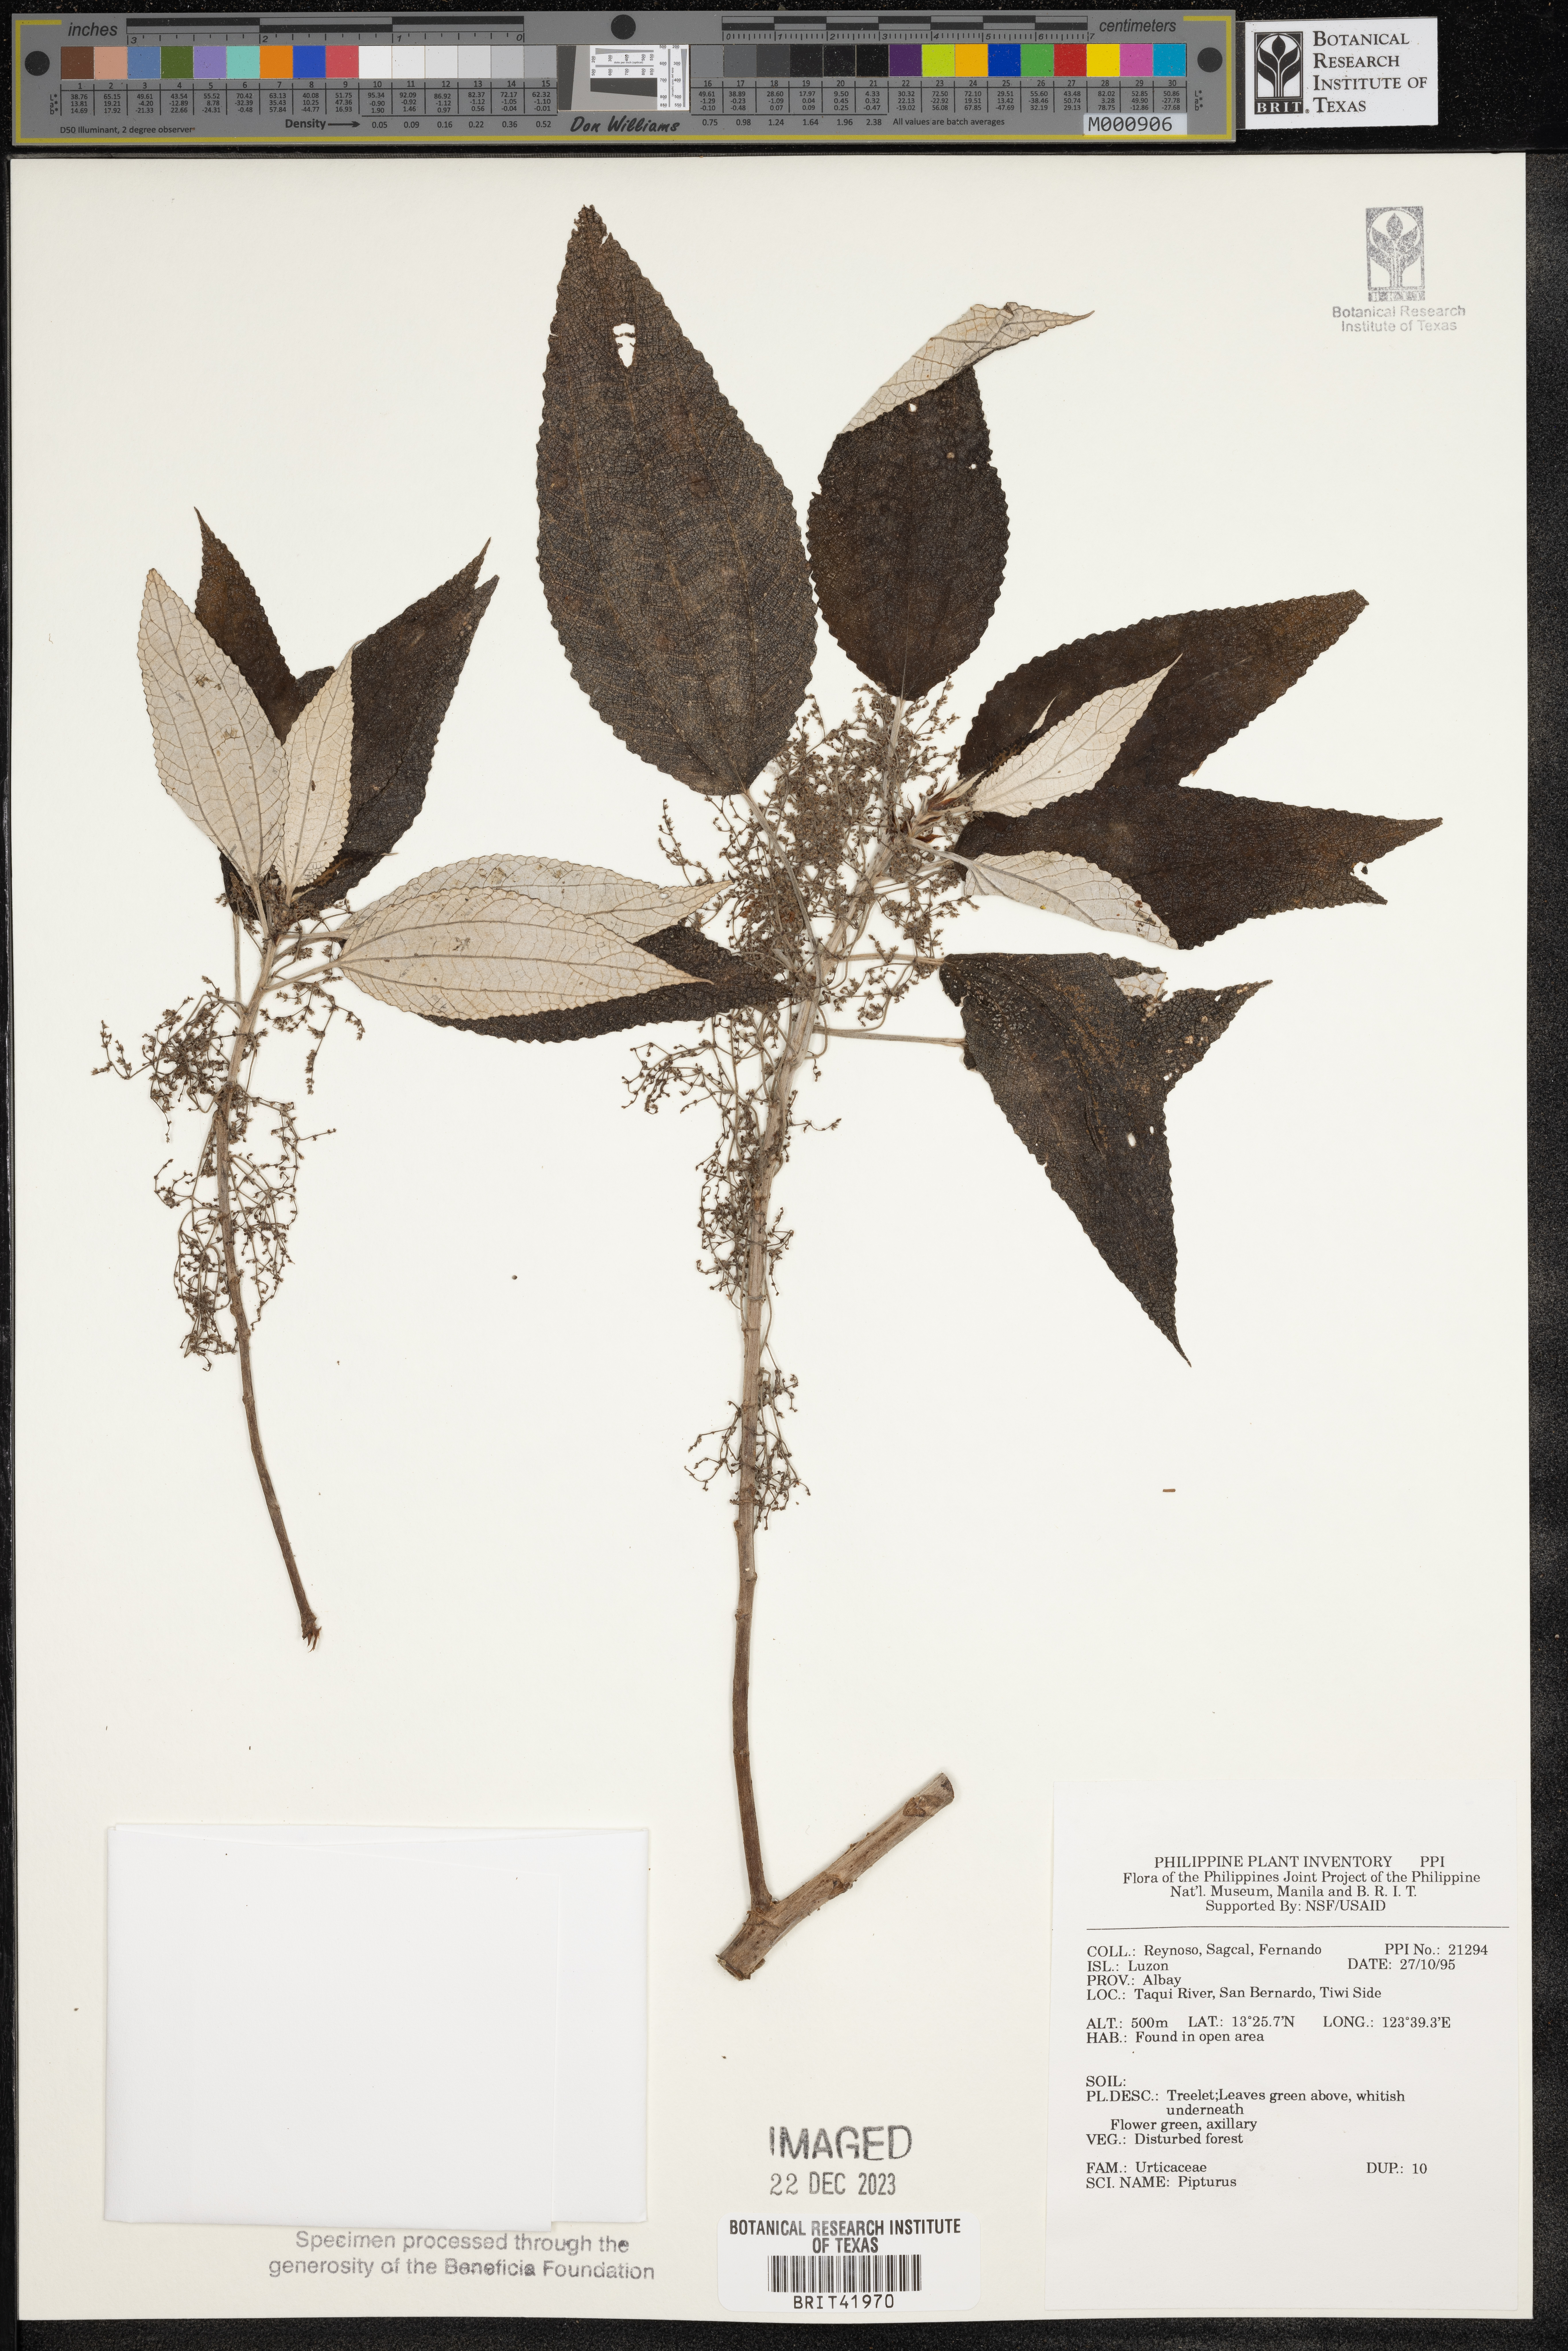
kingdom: Plantae
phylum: Tracheophyta
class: Magnoliopsida
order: Rosales
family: Urticaceae
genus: Pipturus
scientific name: Pipturus
